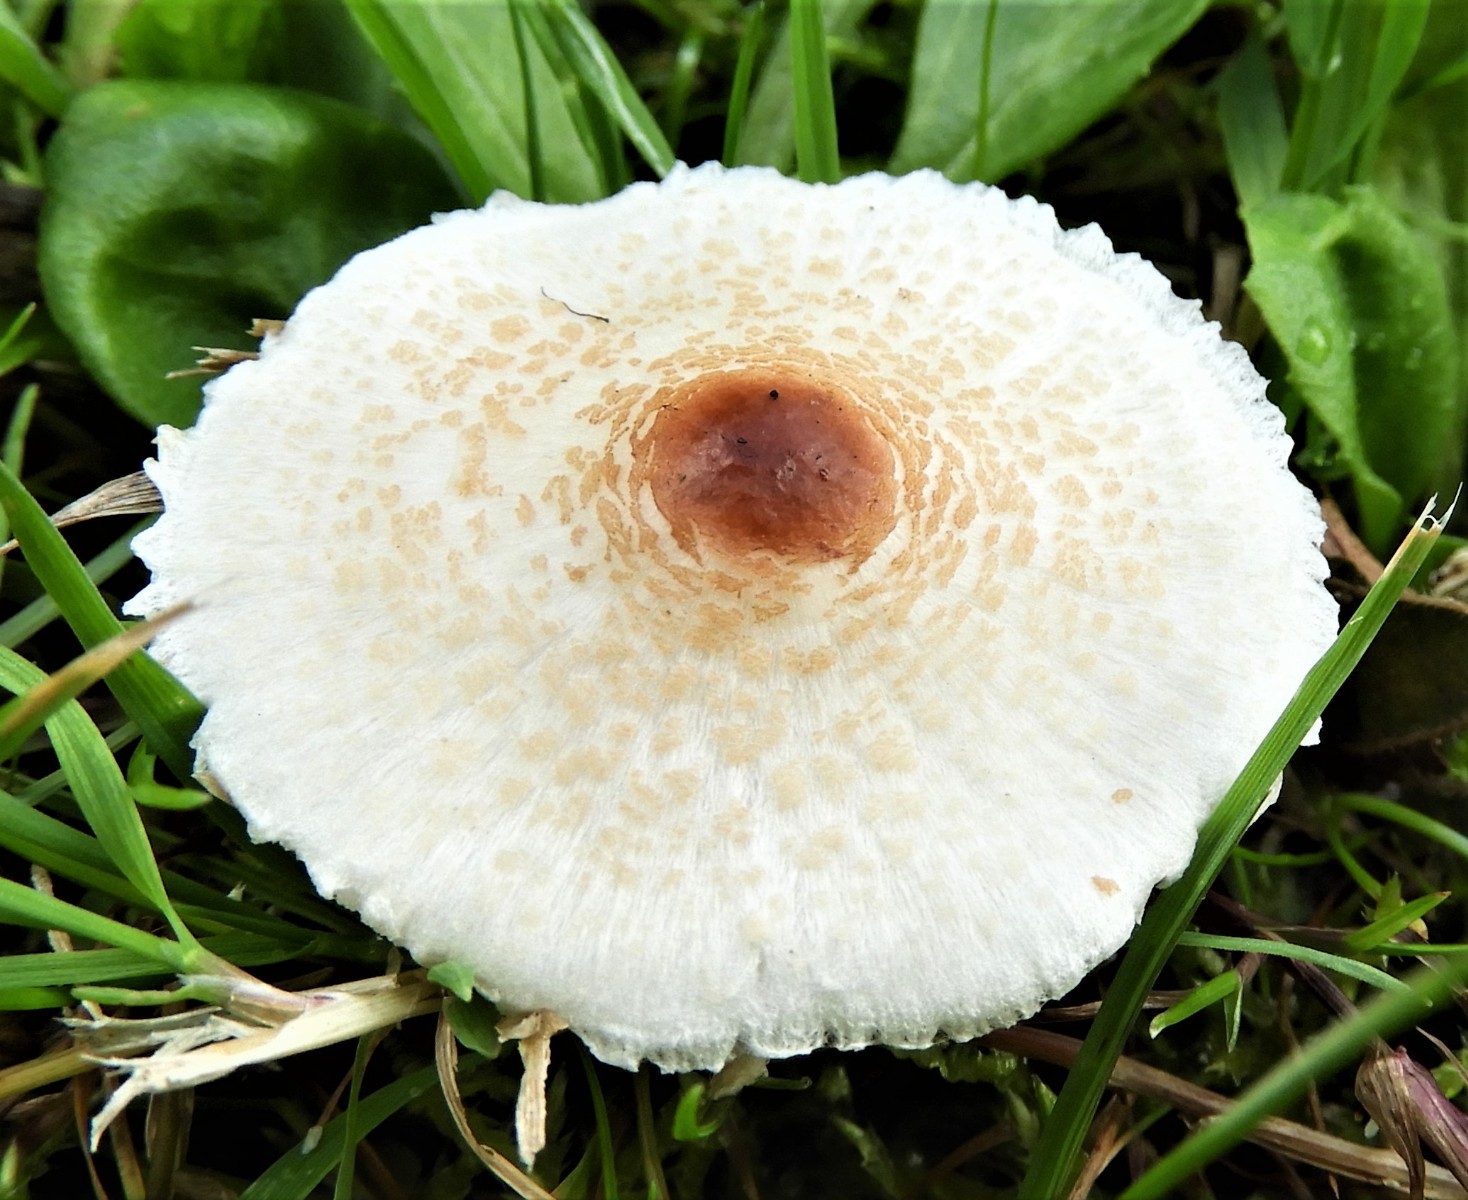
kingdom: Fungi
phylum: Basidiomycota
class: Agaricomycetes
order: Agaricales
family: Agaricaceae
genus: Lepiota
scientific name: Lepiota cristata
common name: stinkende parasolhat
